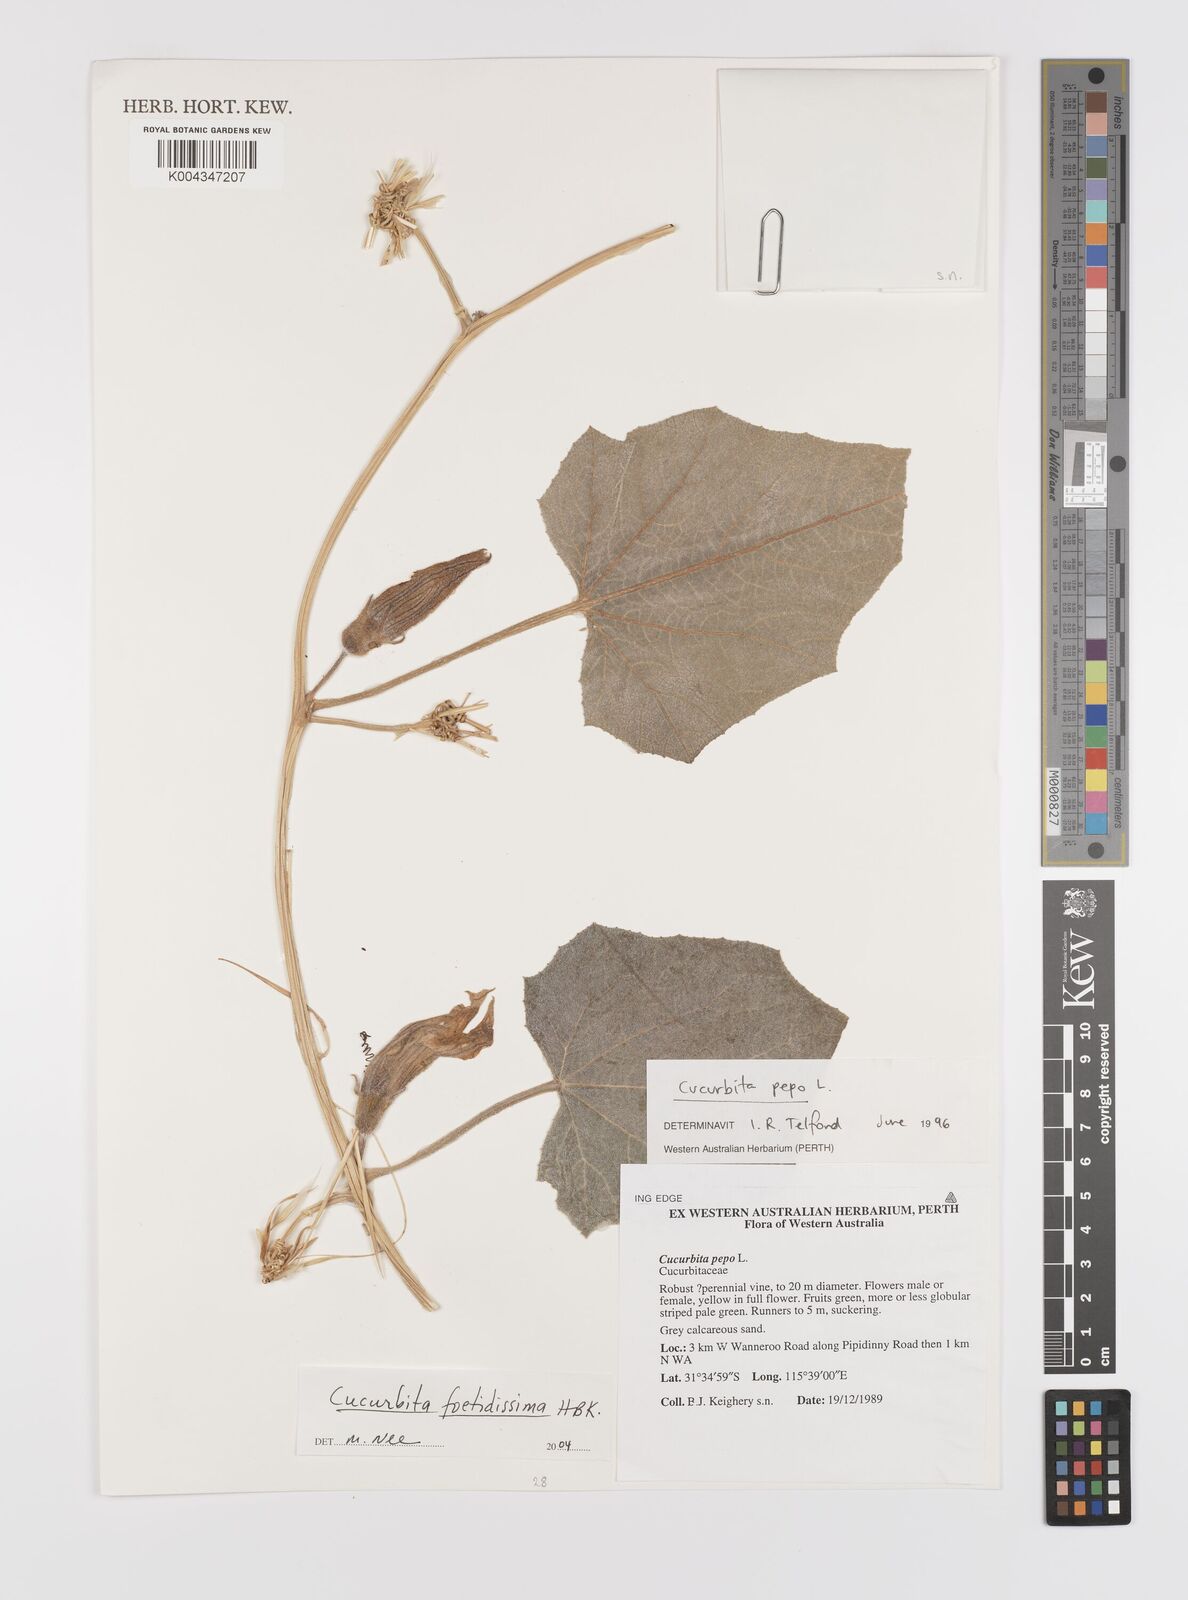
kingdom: Plantae
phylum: Tracheophyta
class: Magnoliopsida
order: Cucurbitales
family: Cucurbitaceae
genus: Cucurbita
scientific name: Cucurbita foetidissima
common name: Buffalo gourd
